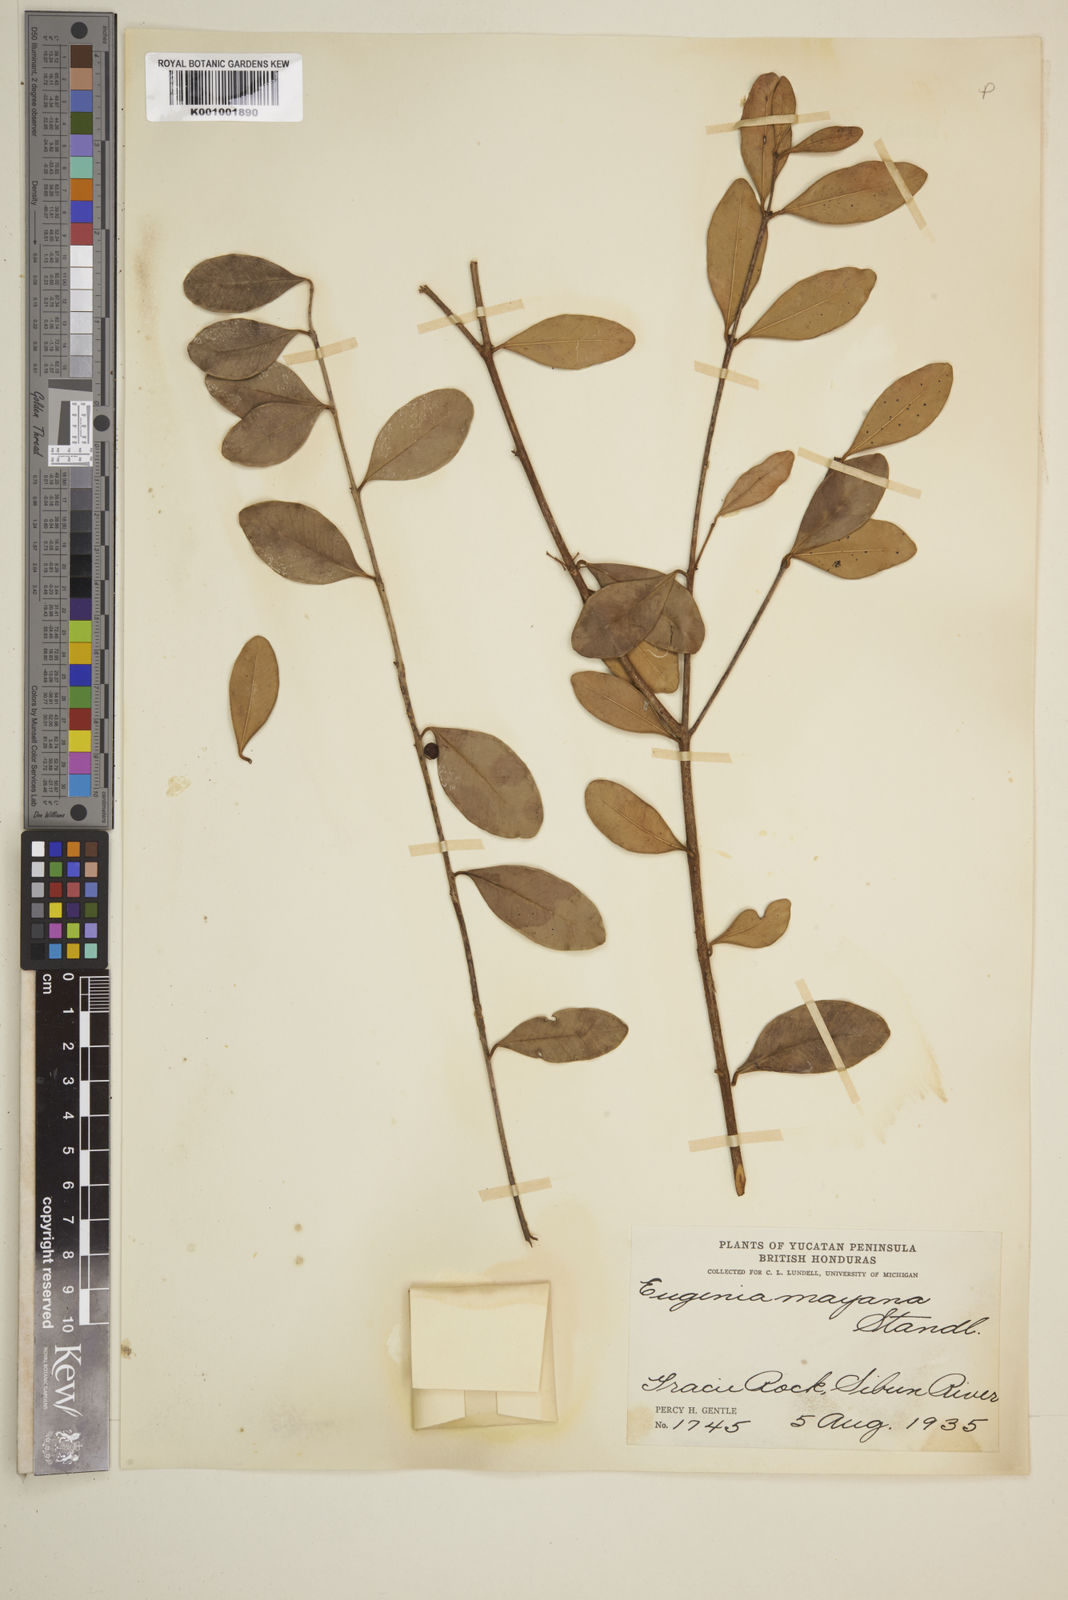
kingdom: Plantae
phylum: Tracheophyta
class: Magnoliopsida
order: Myrtales
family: Myrtaceae
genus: Eugenia
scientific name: Eugenia foetida
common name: White wattling
